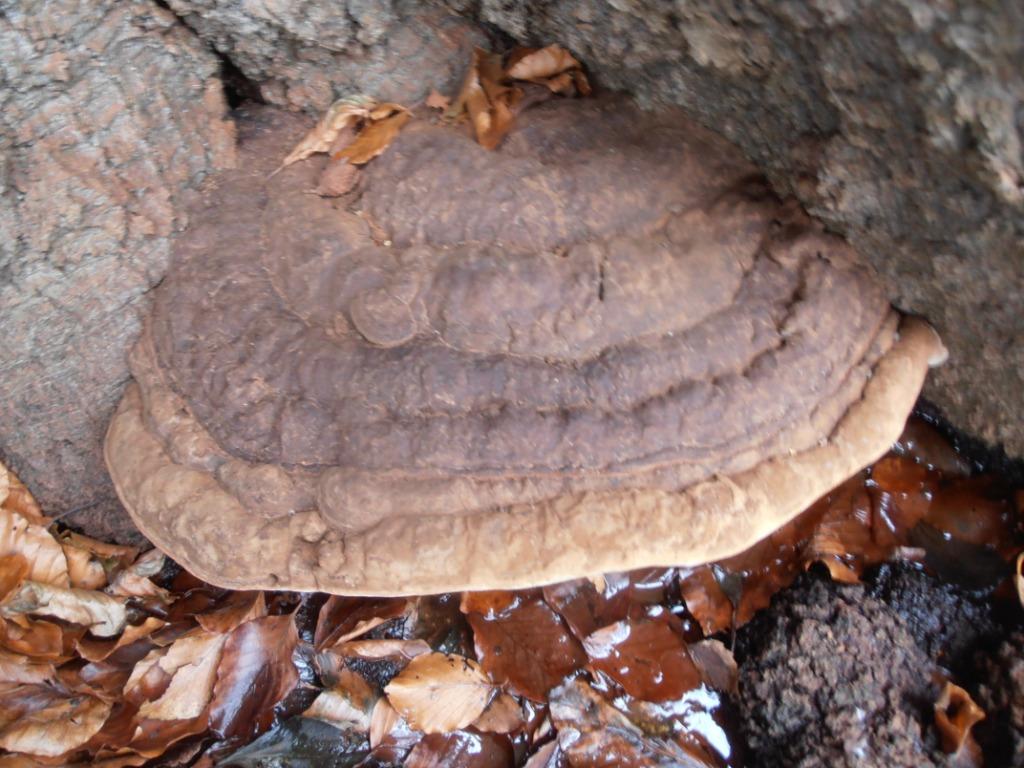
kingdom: Fungi
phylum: Basidiomycota
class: Agaricomycetes
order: Polyporales
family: Polyporaceae
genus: Ganoderma
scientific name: Ganoderma pfeifferi
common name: kobberrød lakporesvamp
